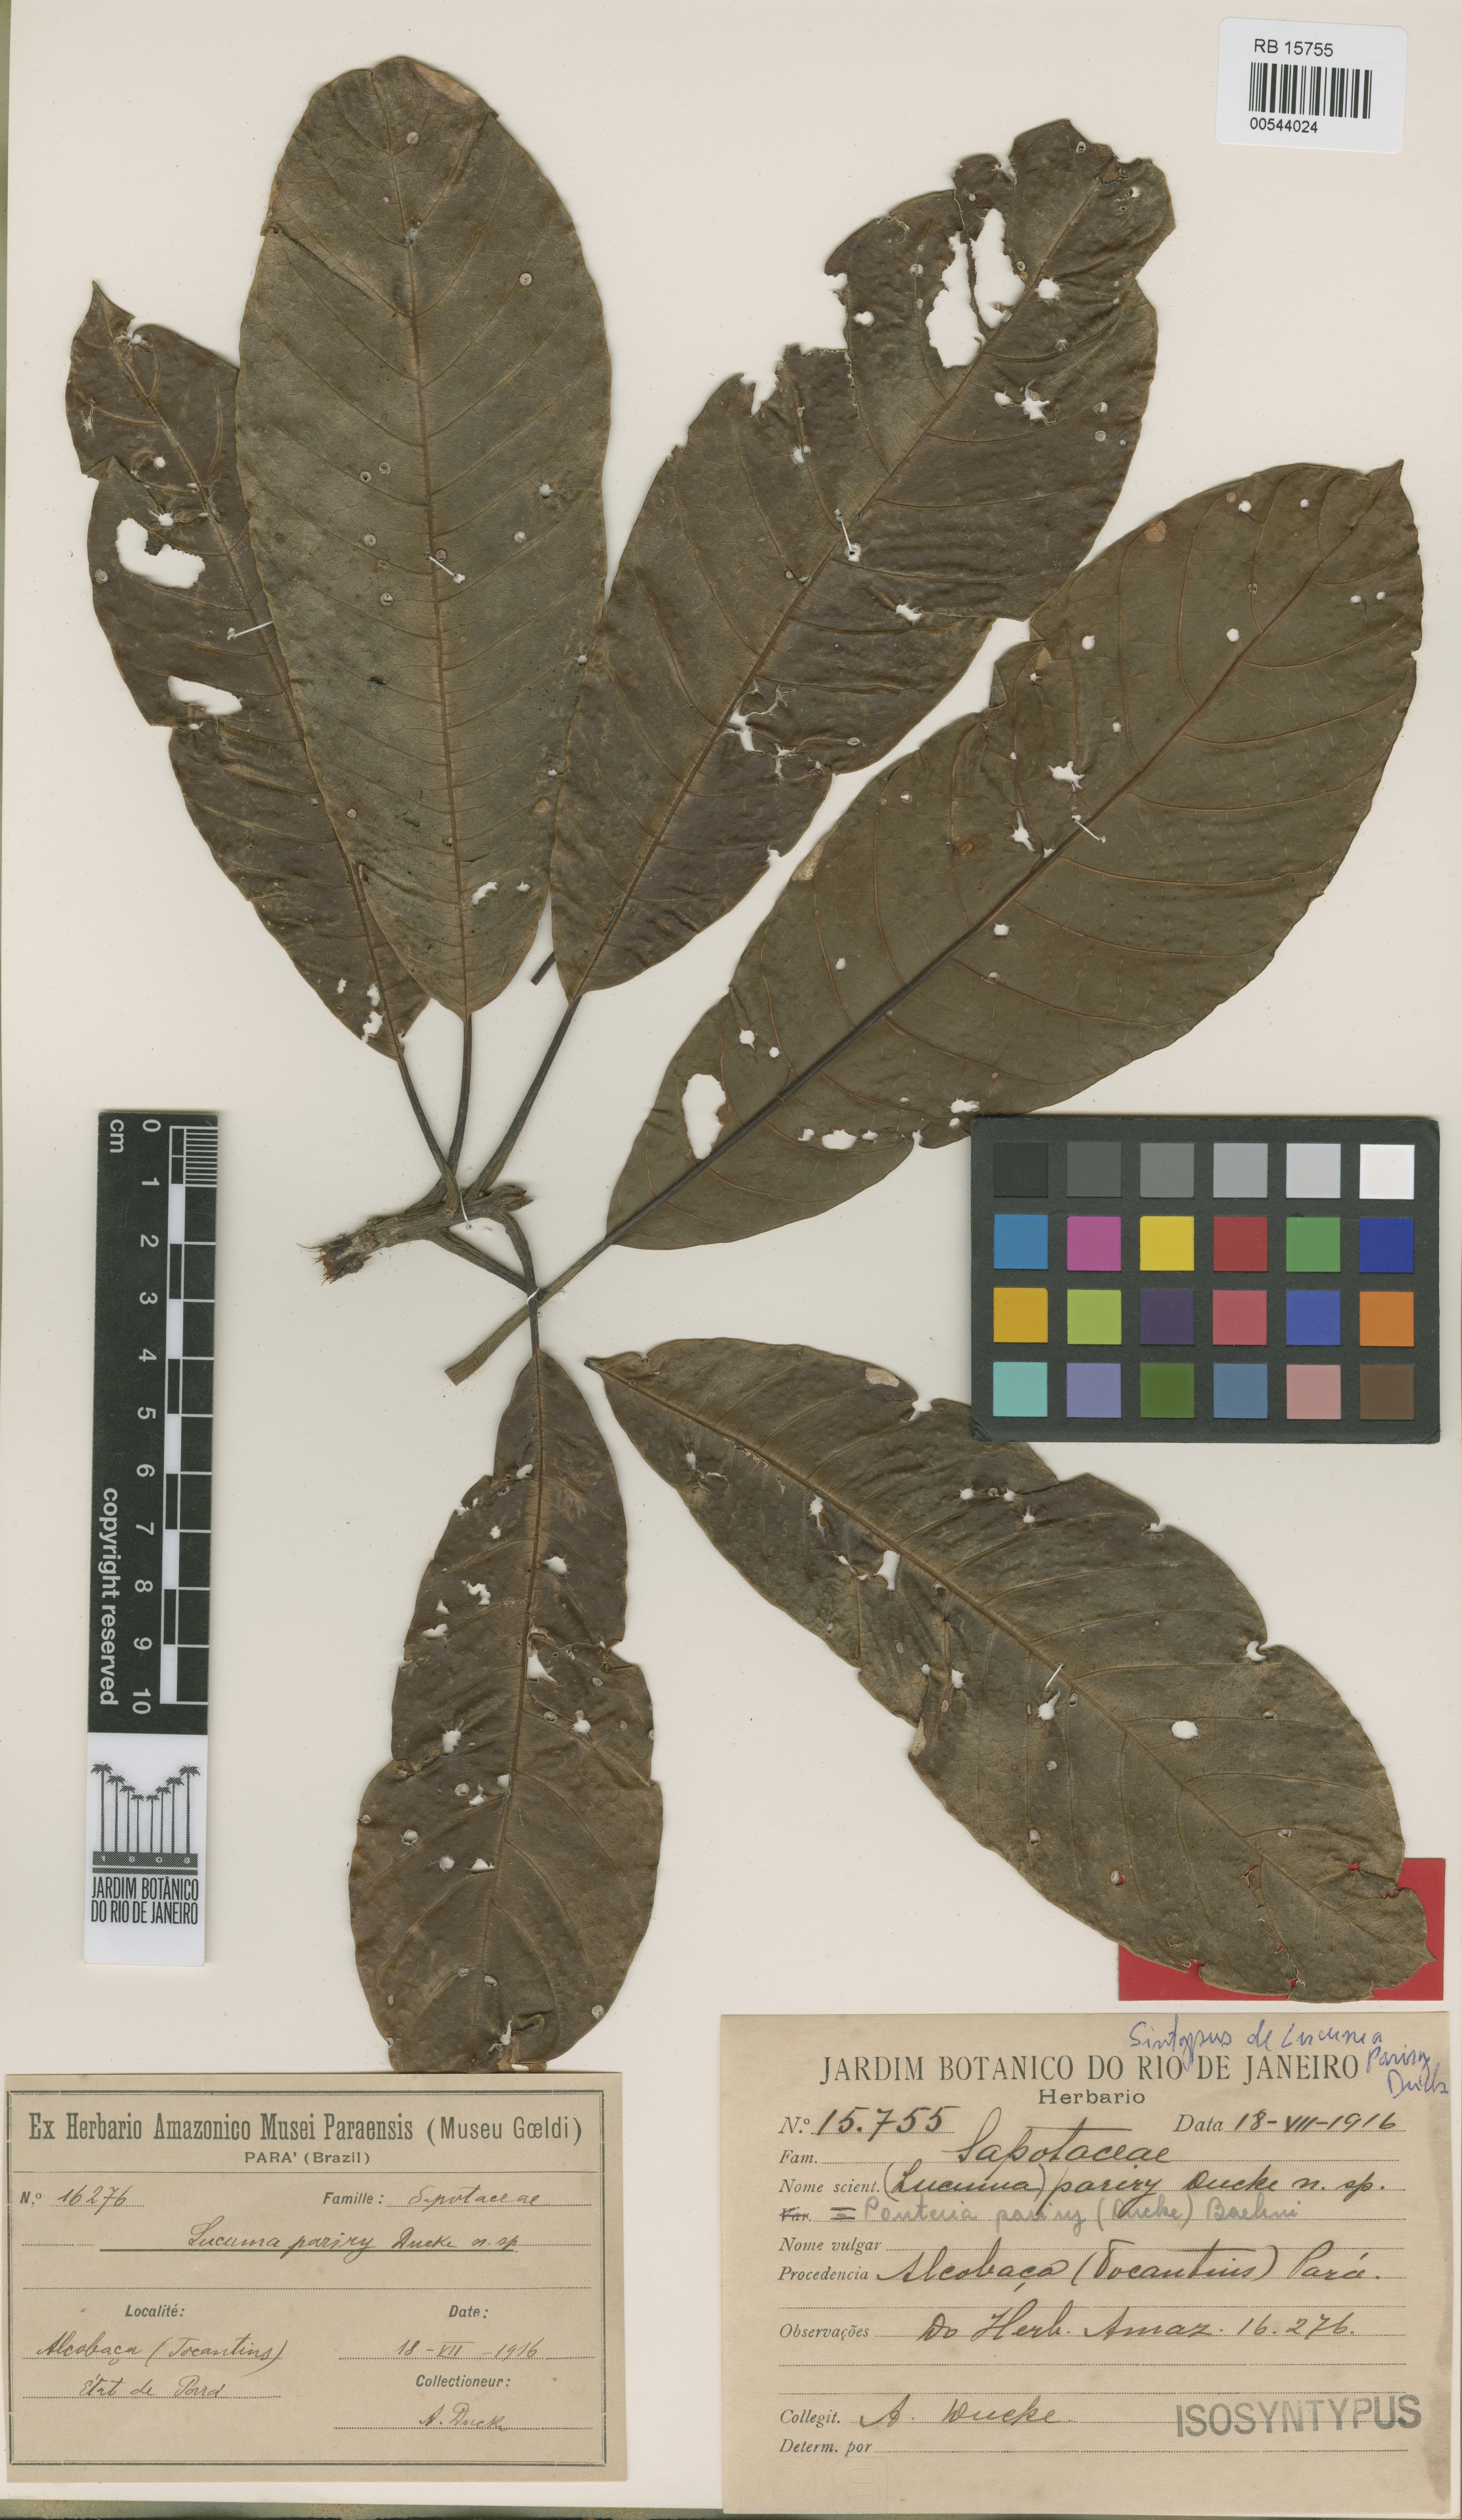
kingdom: Plantae
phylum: Tracheophyta
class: Magnoliopsida
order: Ericales
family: Sapotaceae
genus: Pouteria
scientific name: Pouteria pariry
